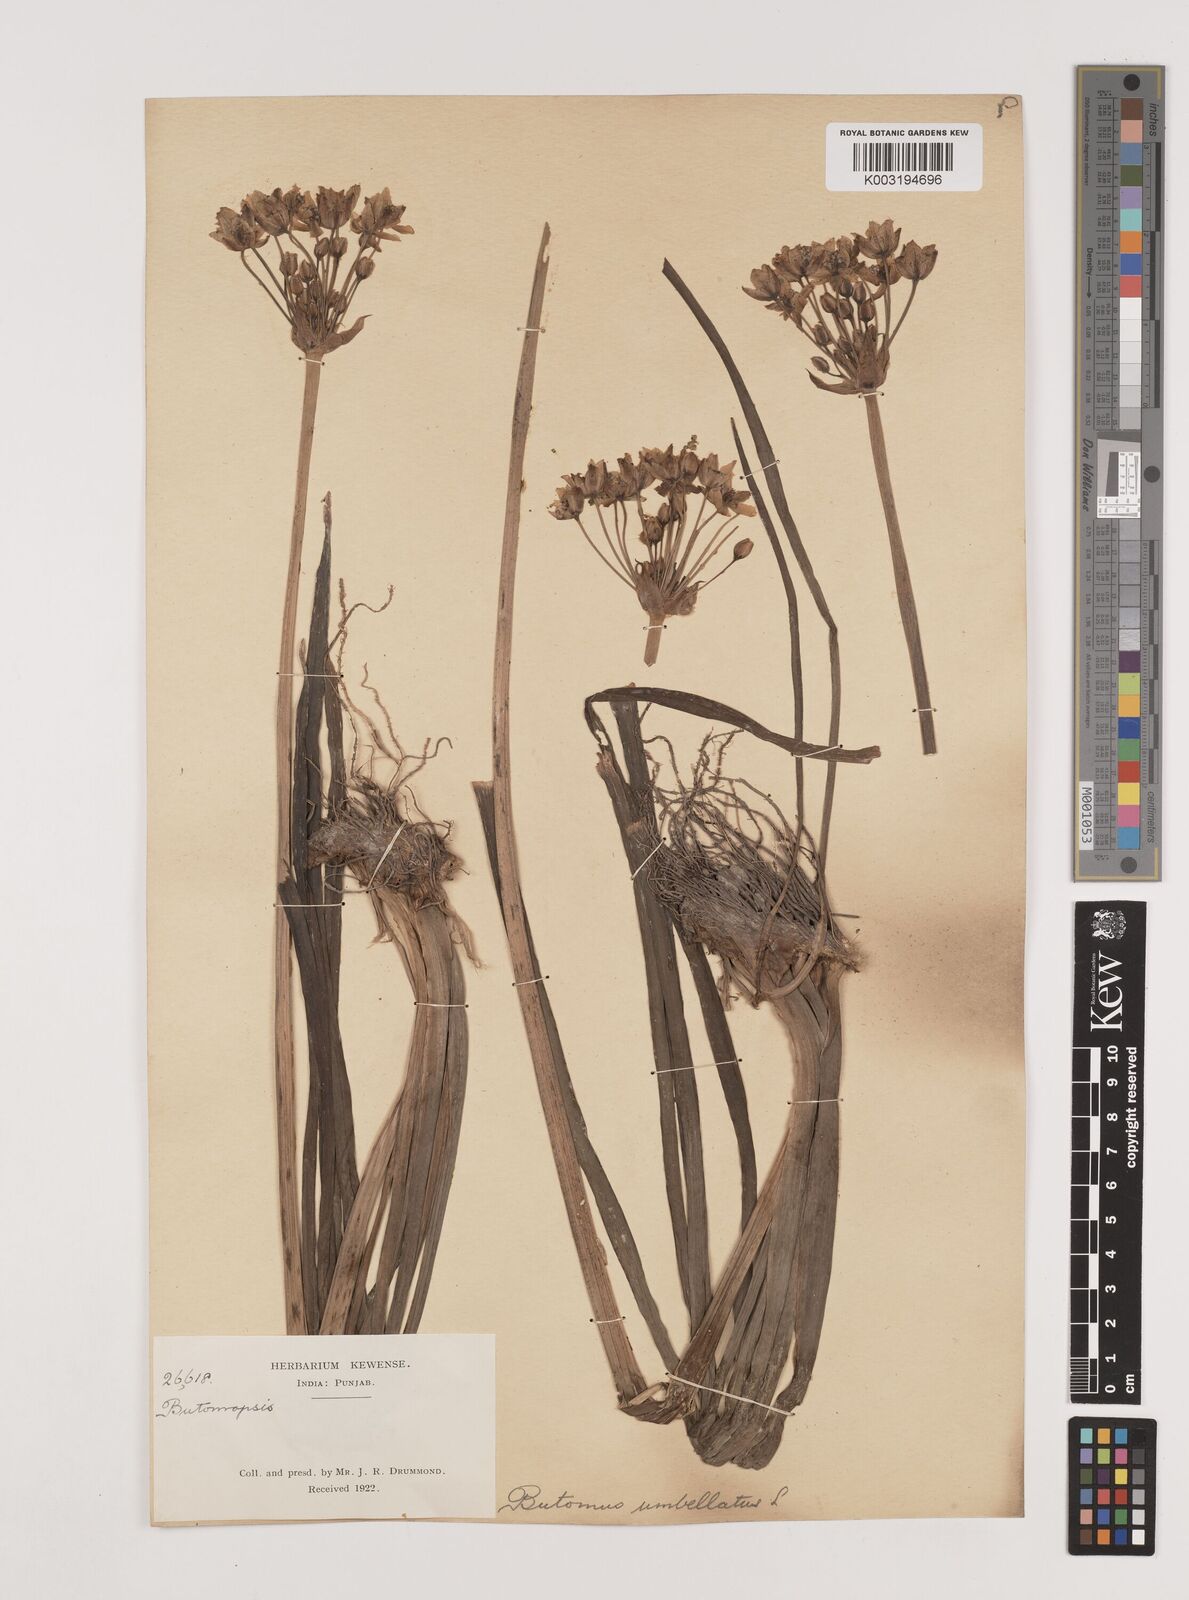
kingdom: Plantae
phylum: Tracheophyta
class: Liliopsida
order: Alismatales
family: Butomaceae
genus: Butomus
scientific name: Butomus umbellatus
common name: Flowering-rush
